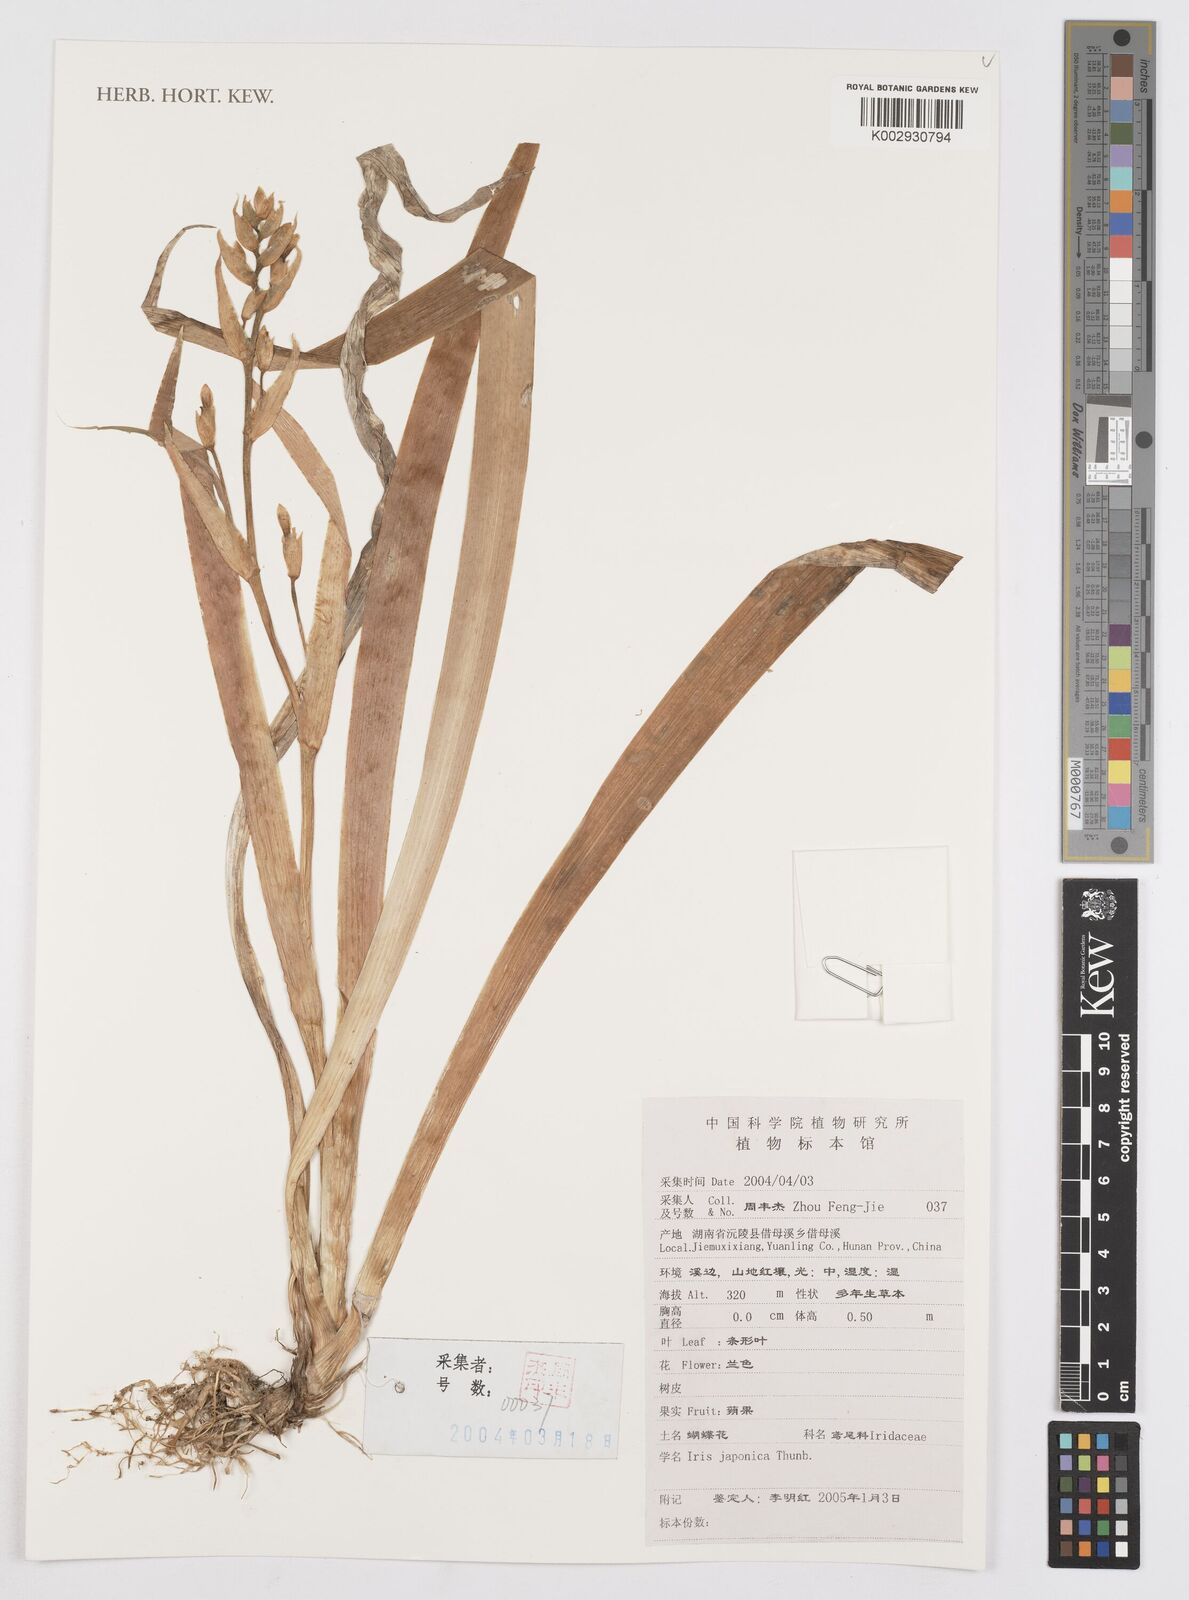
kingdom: Plantae
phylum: Tracheophyta
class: Liliopsida
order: Asparagales
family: Iridaceae
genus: Iris
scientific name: Iris japonica
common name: Butterfly-flower
